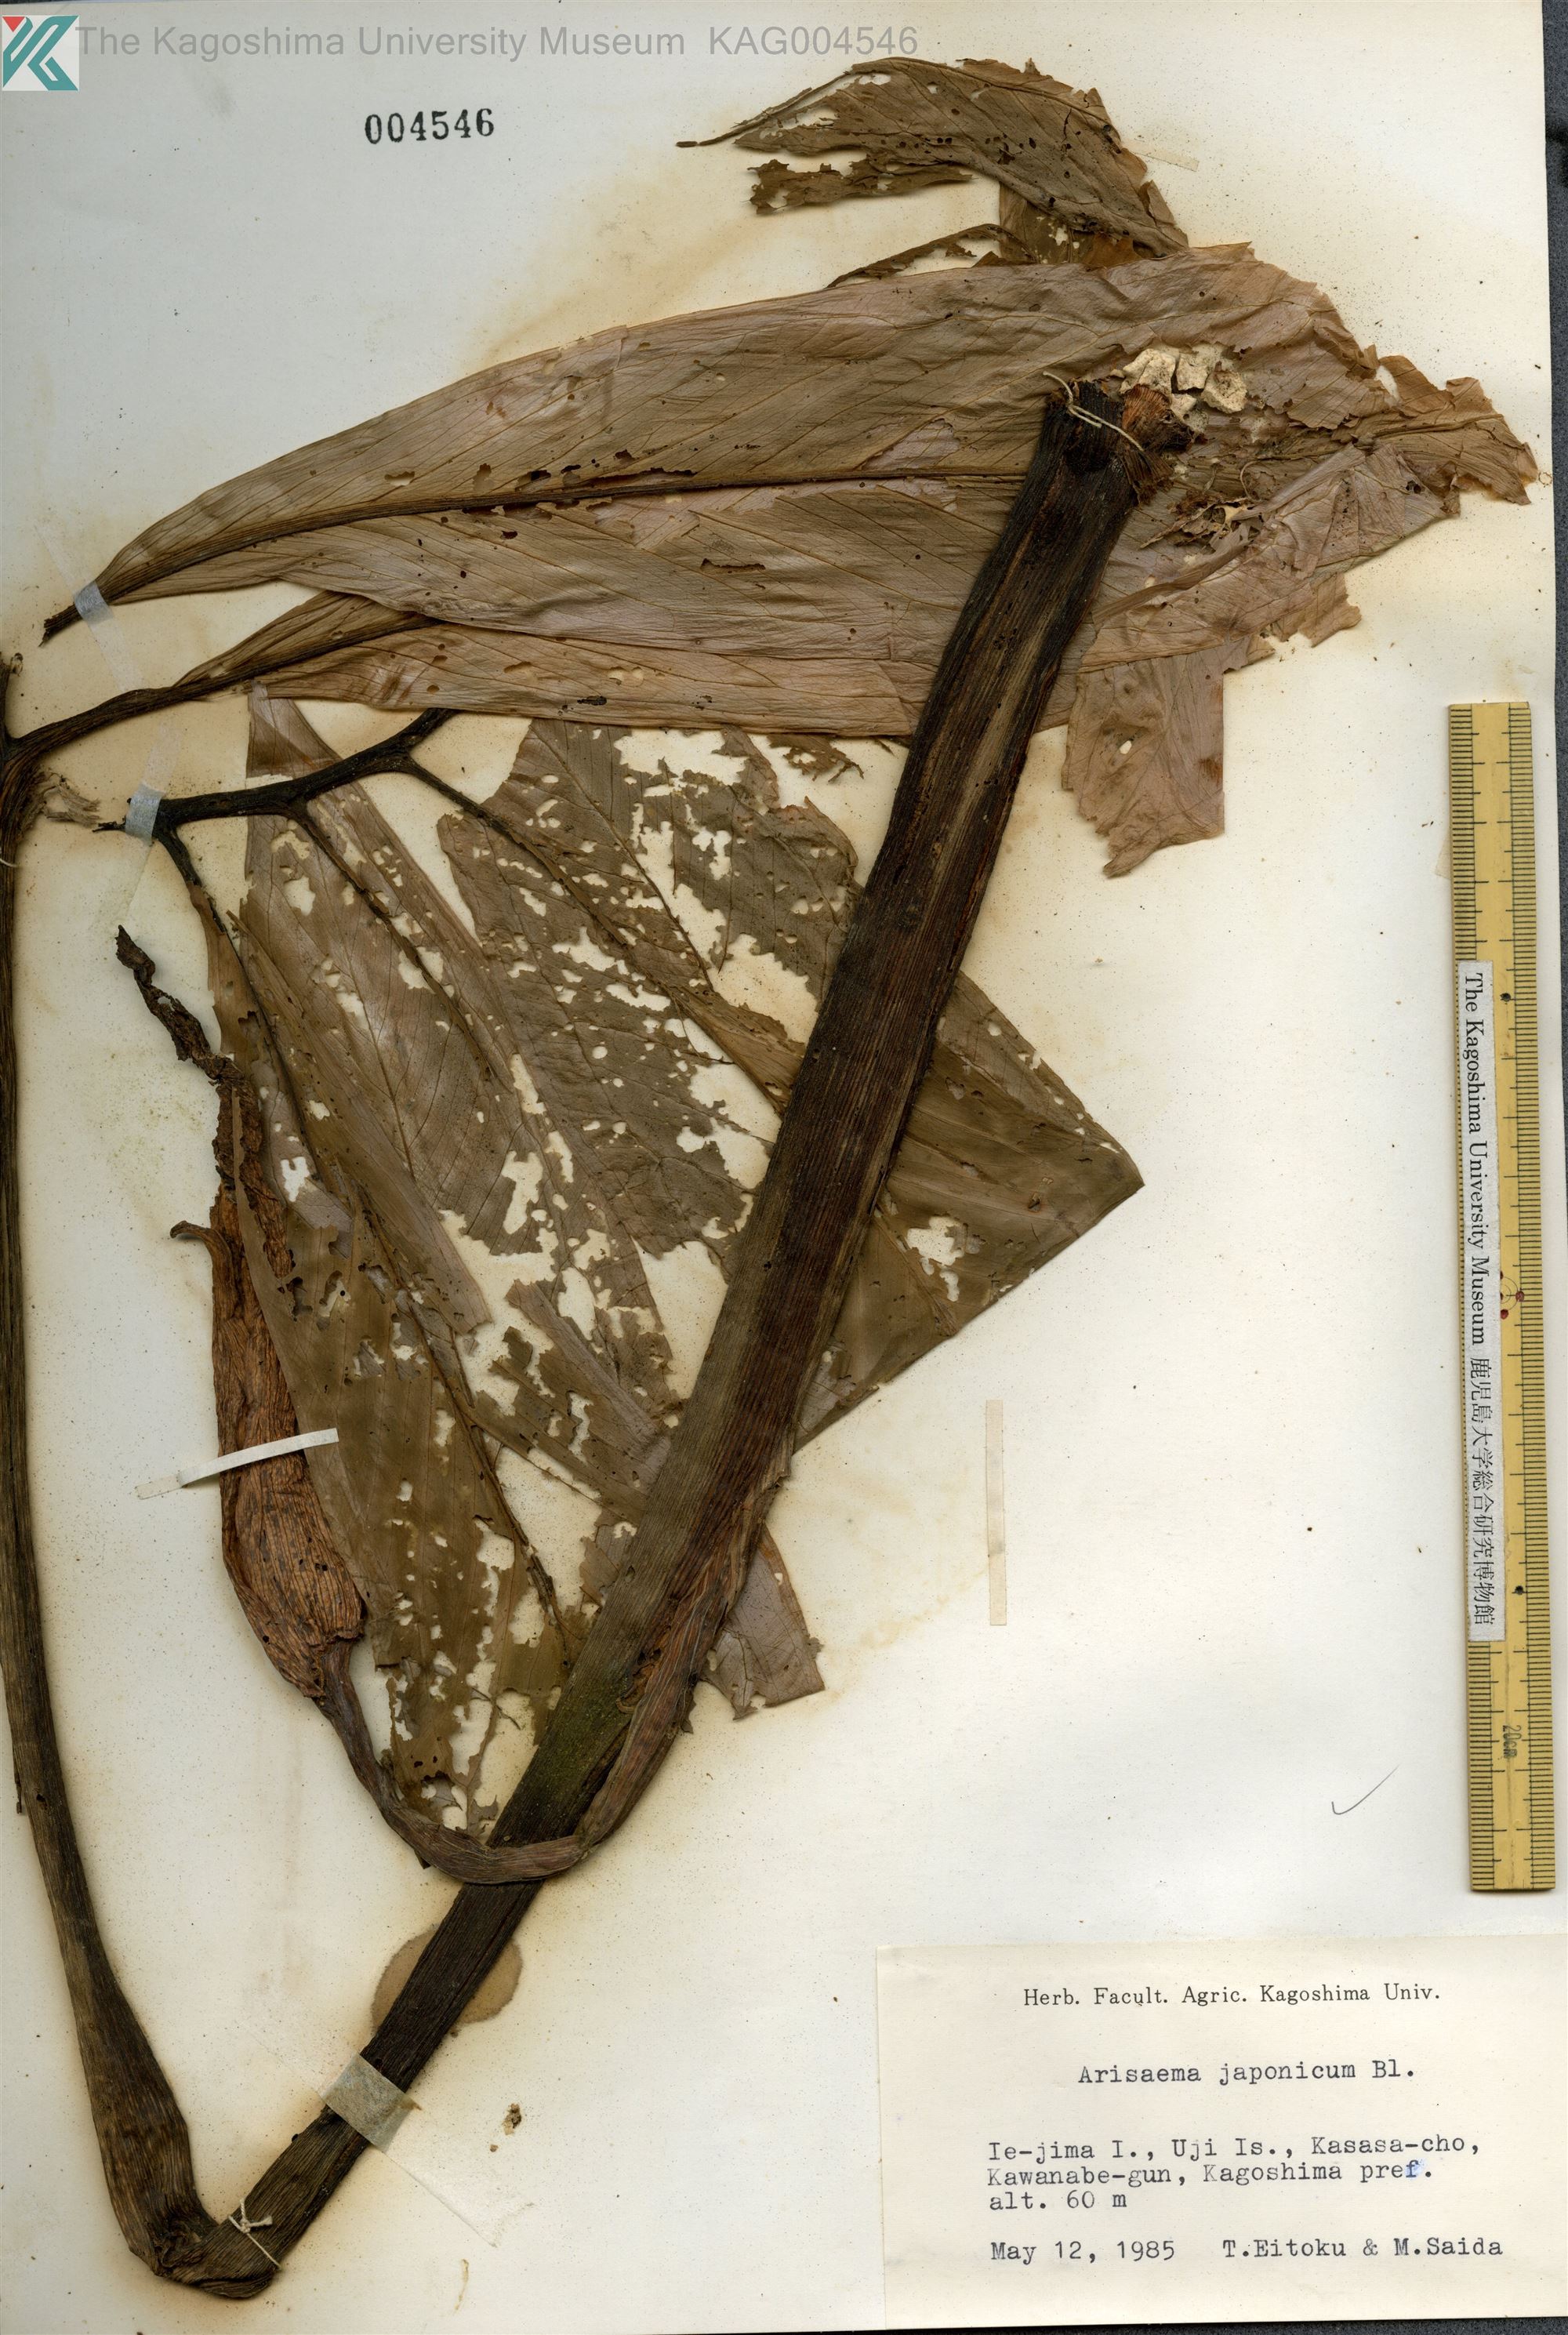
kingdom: Plantae
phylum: Tracheophyta
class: Liliopsida
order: Alismatales
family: Araceae
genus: Arisaema
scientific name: Arisaema thunbergii
